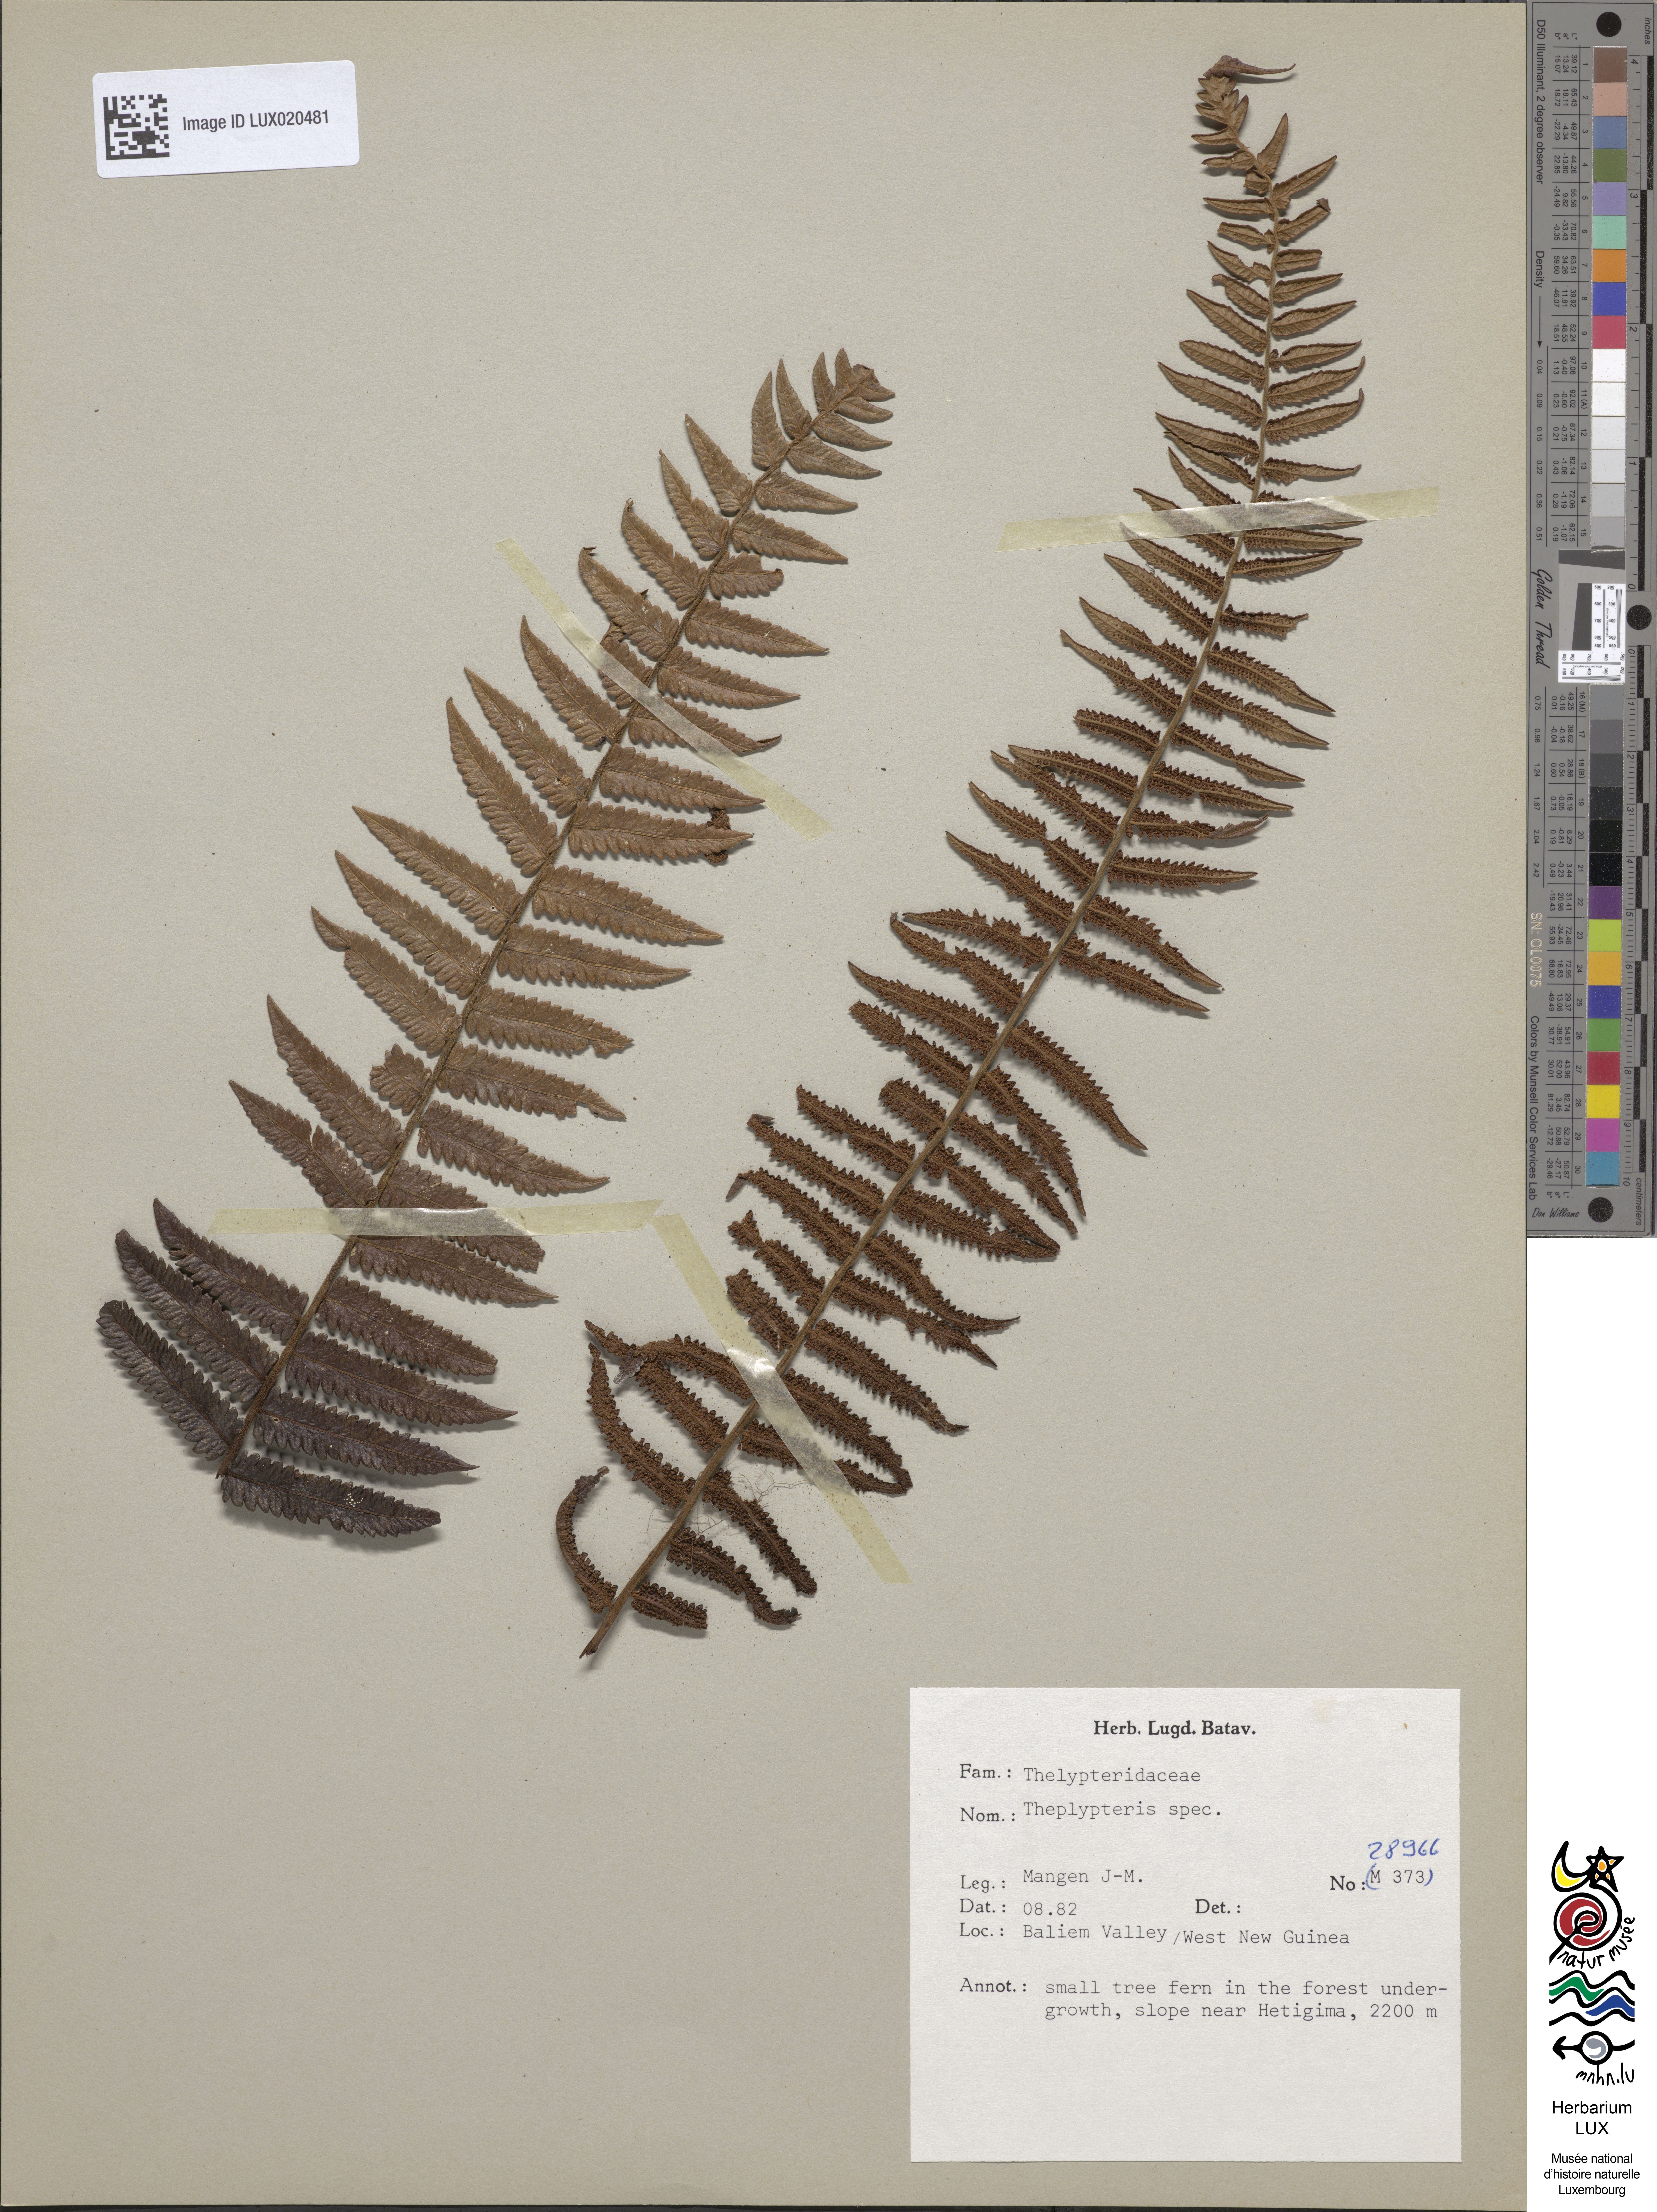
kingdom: Plantae
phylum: Tracheophyta
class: Polypodiopsida
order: Polypodiales
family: Thelypteridaceae
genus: Thelypteris
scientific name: Thelypteris
